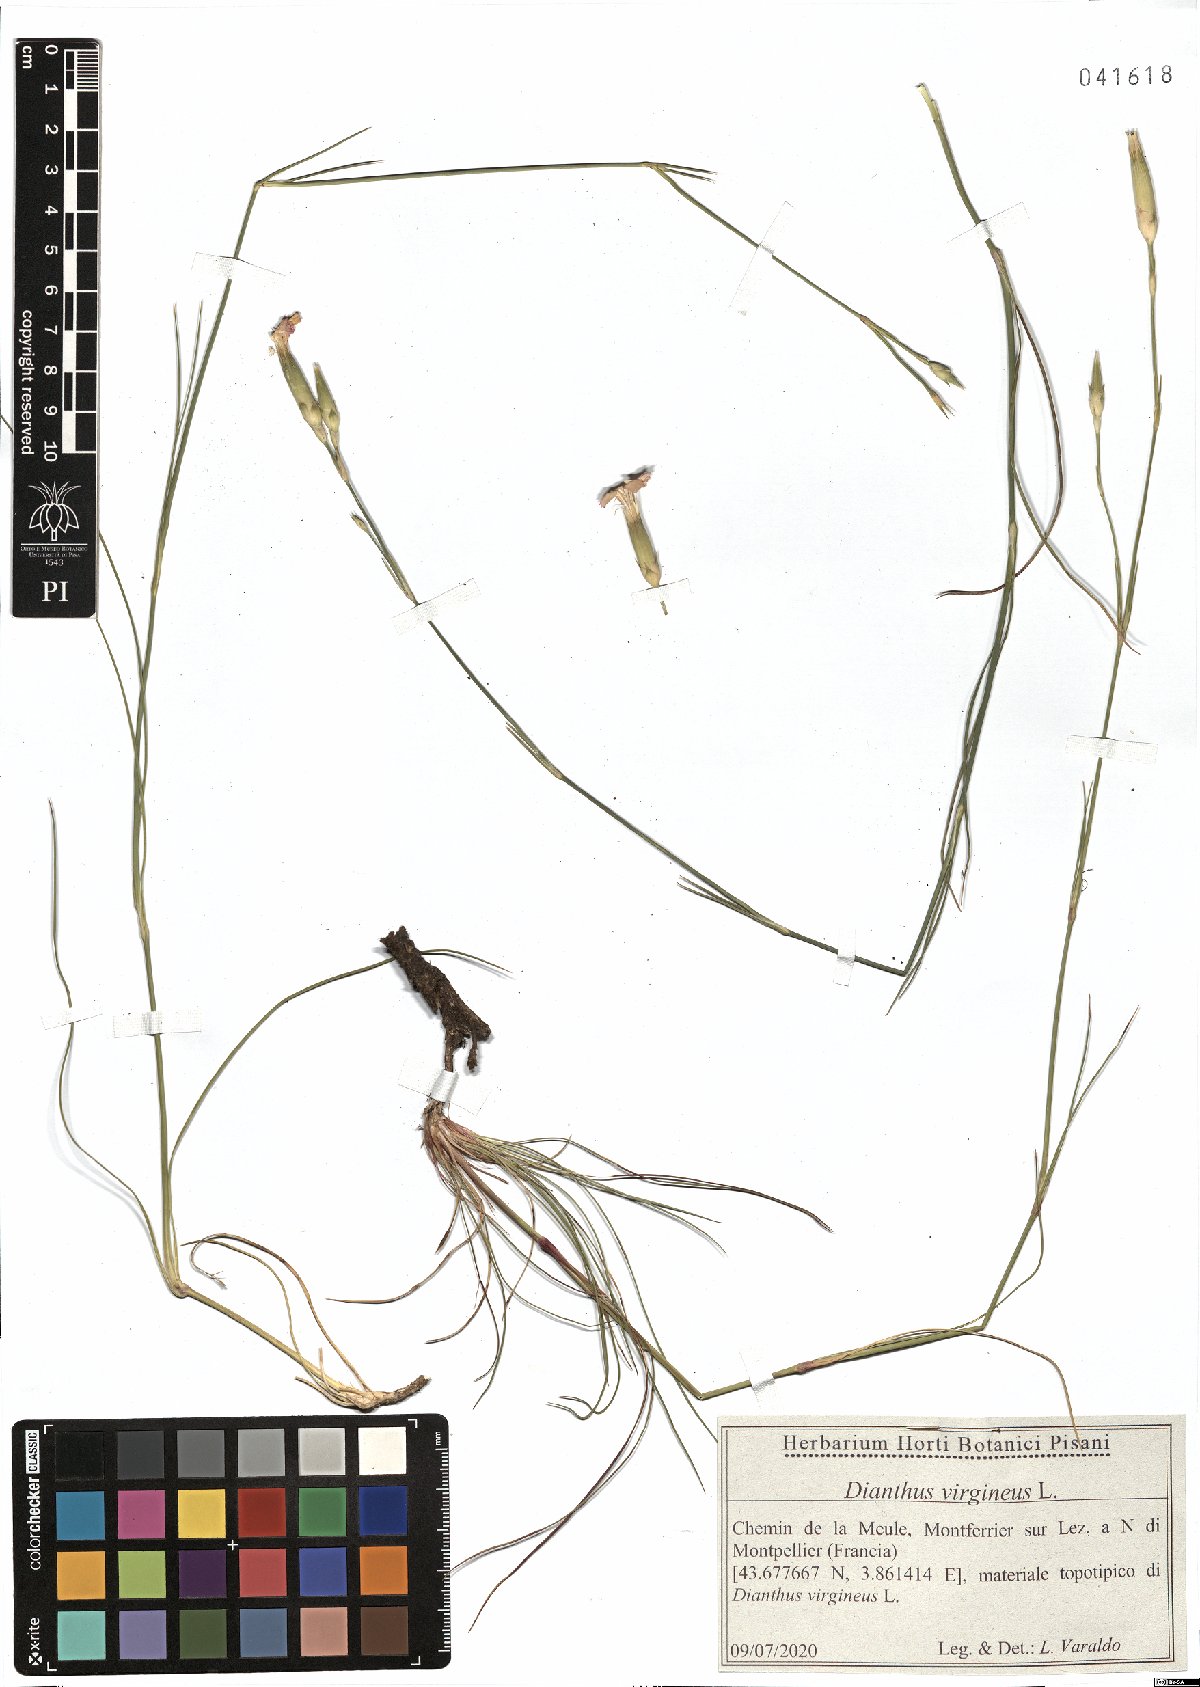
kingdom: Plantae
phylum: Tracheophyta
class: Magnoliopsida
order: Caryophyllales
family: Caryophyllaceae
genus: Dianthus
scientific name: Dianthus virgineus
